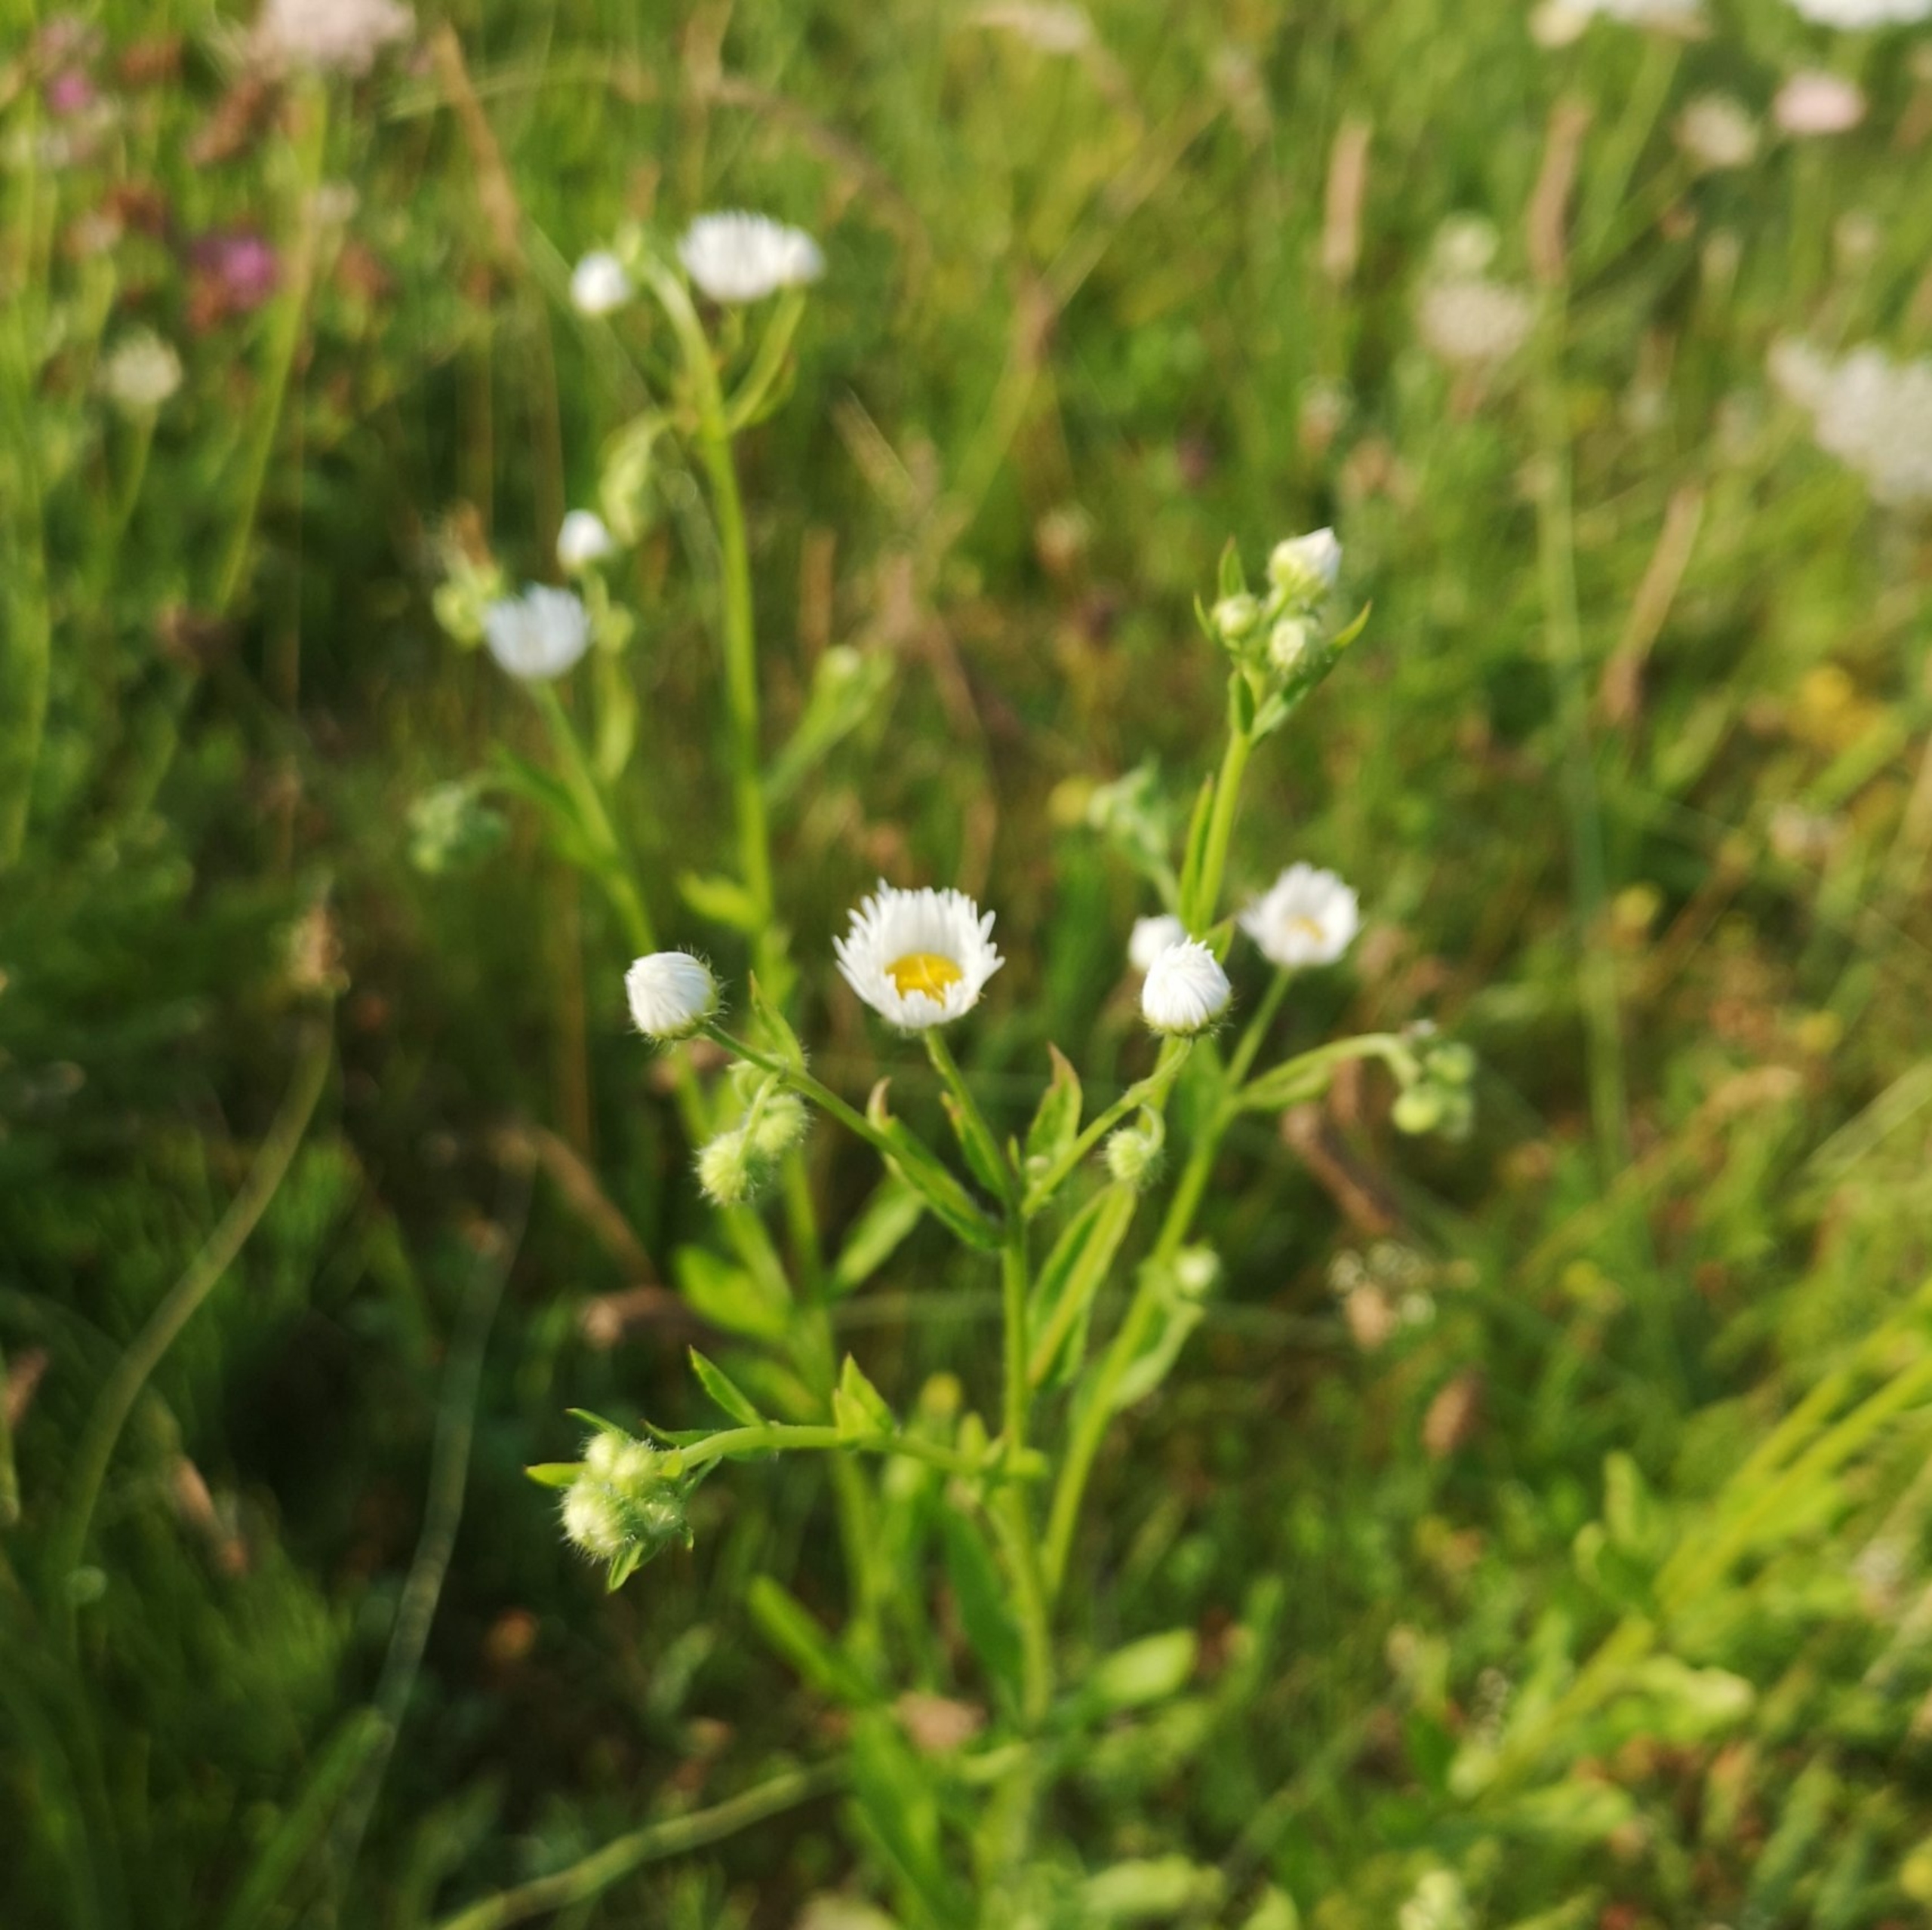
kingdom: Plantae
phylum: Tracheophyta
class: Magnoliopsida
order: Asterales
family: Asteraceae
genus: Erigeron
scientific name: Erigeron annuus
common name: Smalstråle
